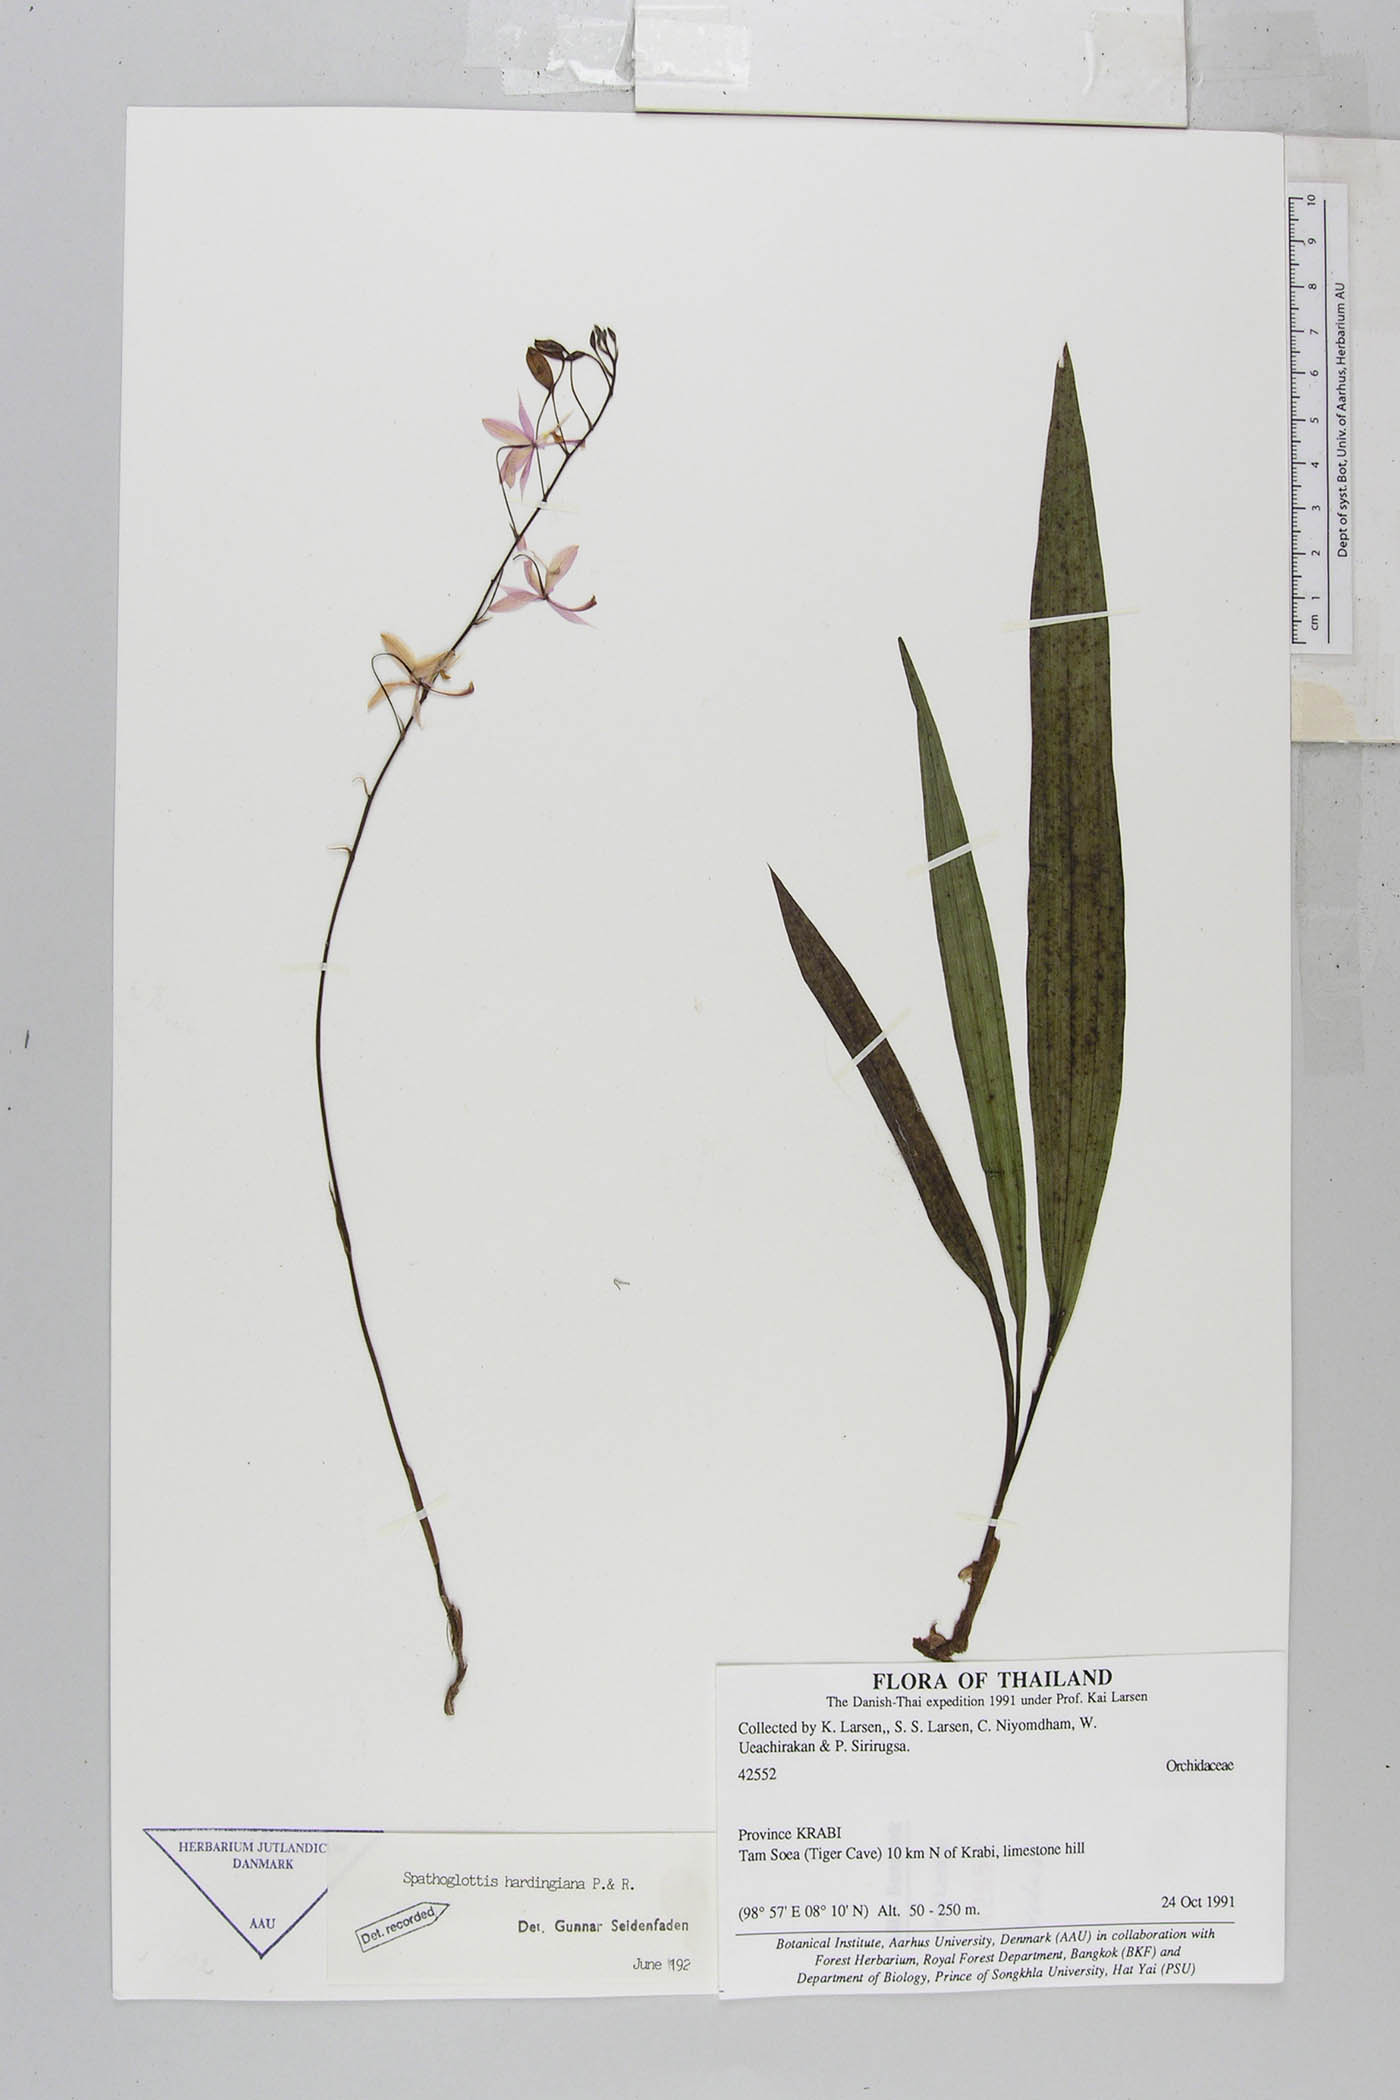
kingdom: Plantae
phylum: Tracheophyta
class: Liliopsida
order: Asparagales
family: Orchidaceae
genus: Spathoglottis
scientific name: Spathoglottis hardingiana
